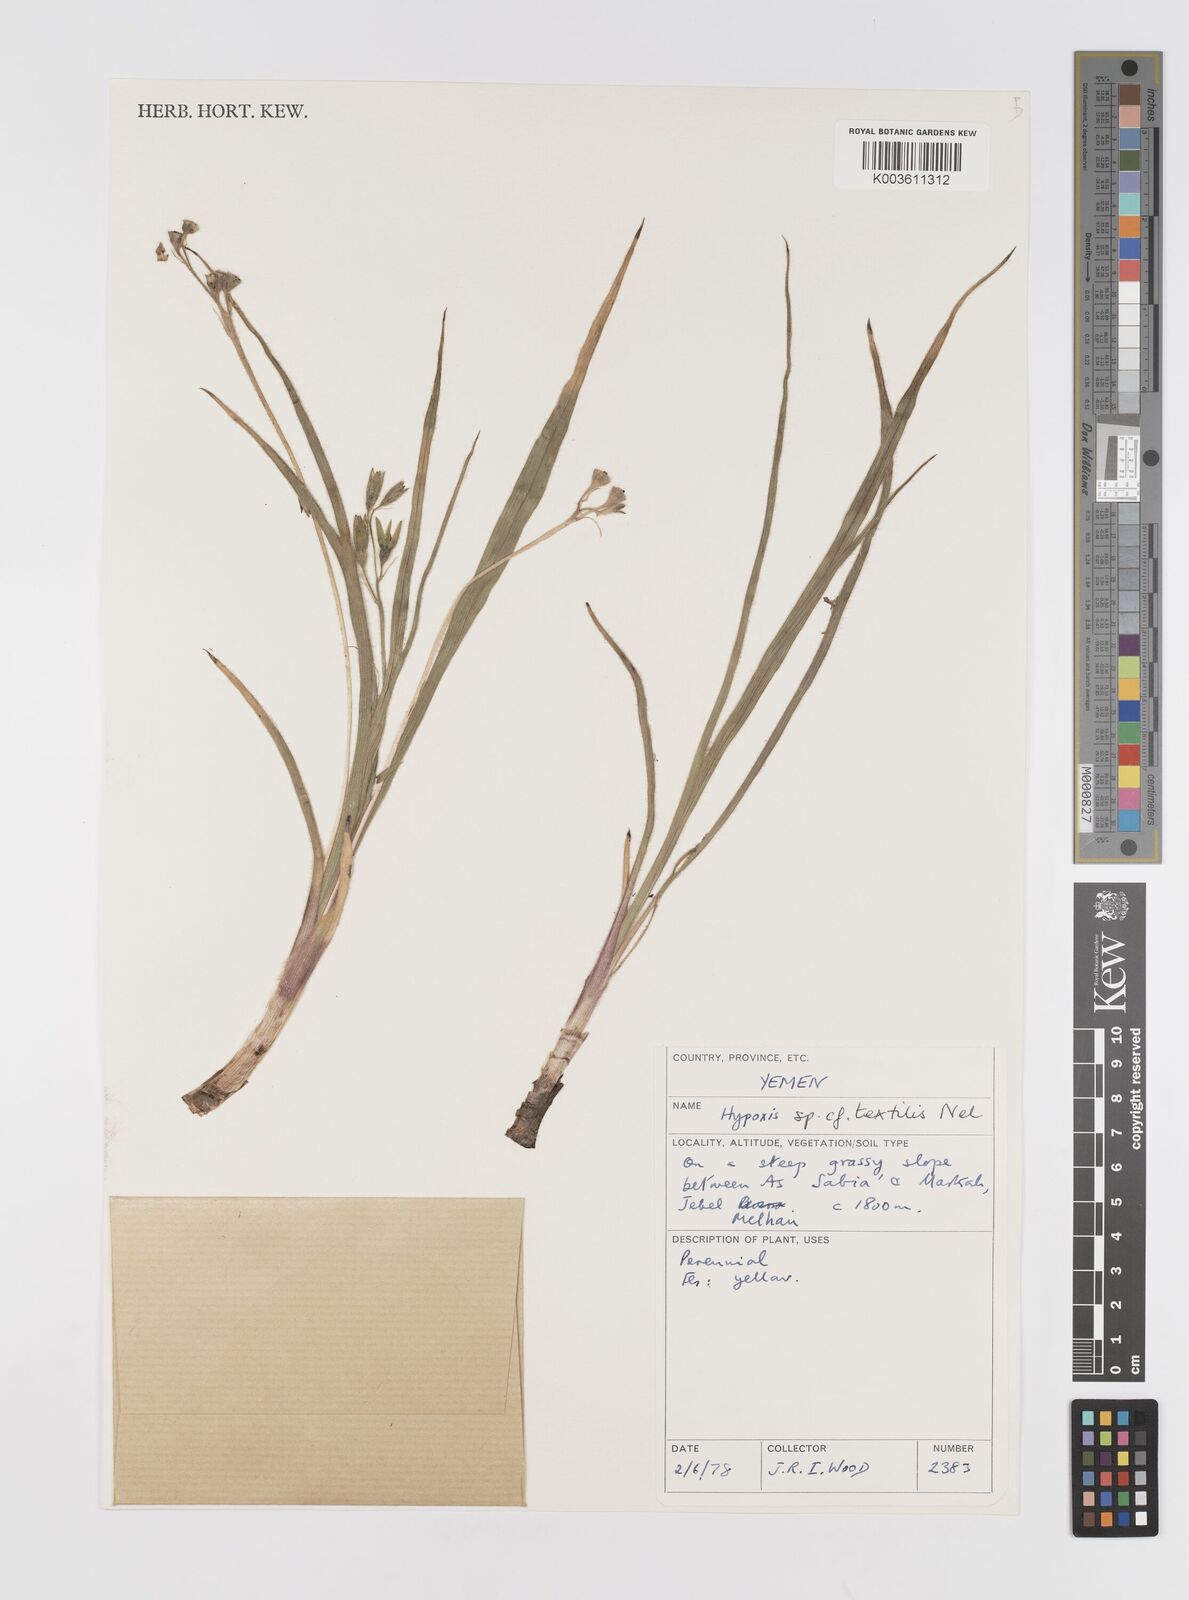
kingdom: Plantae
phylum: Tracheophyta
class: Liliopsida
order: Asparagales
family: Hypoxidaceae
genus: Hypoxis
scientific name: Hypoxis urceolata
